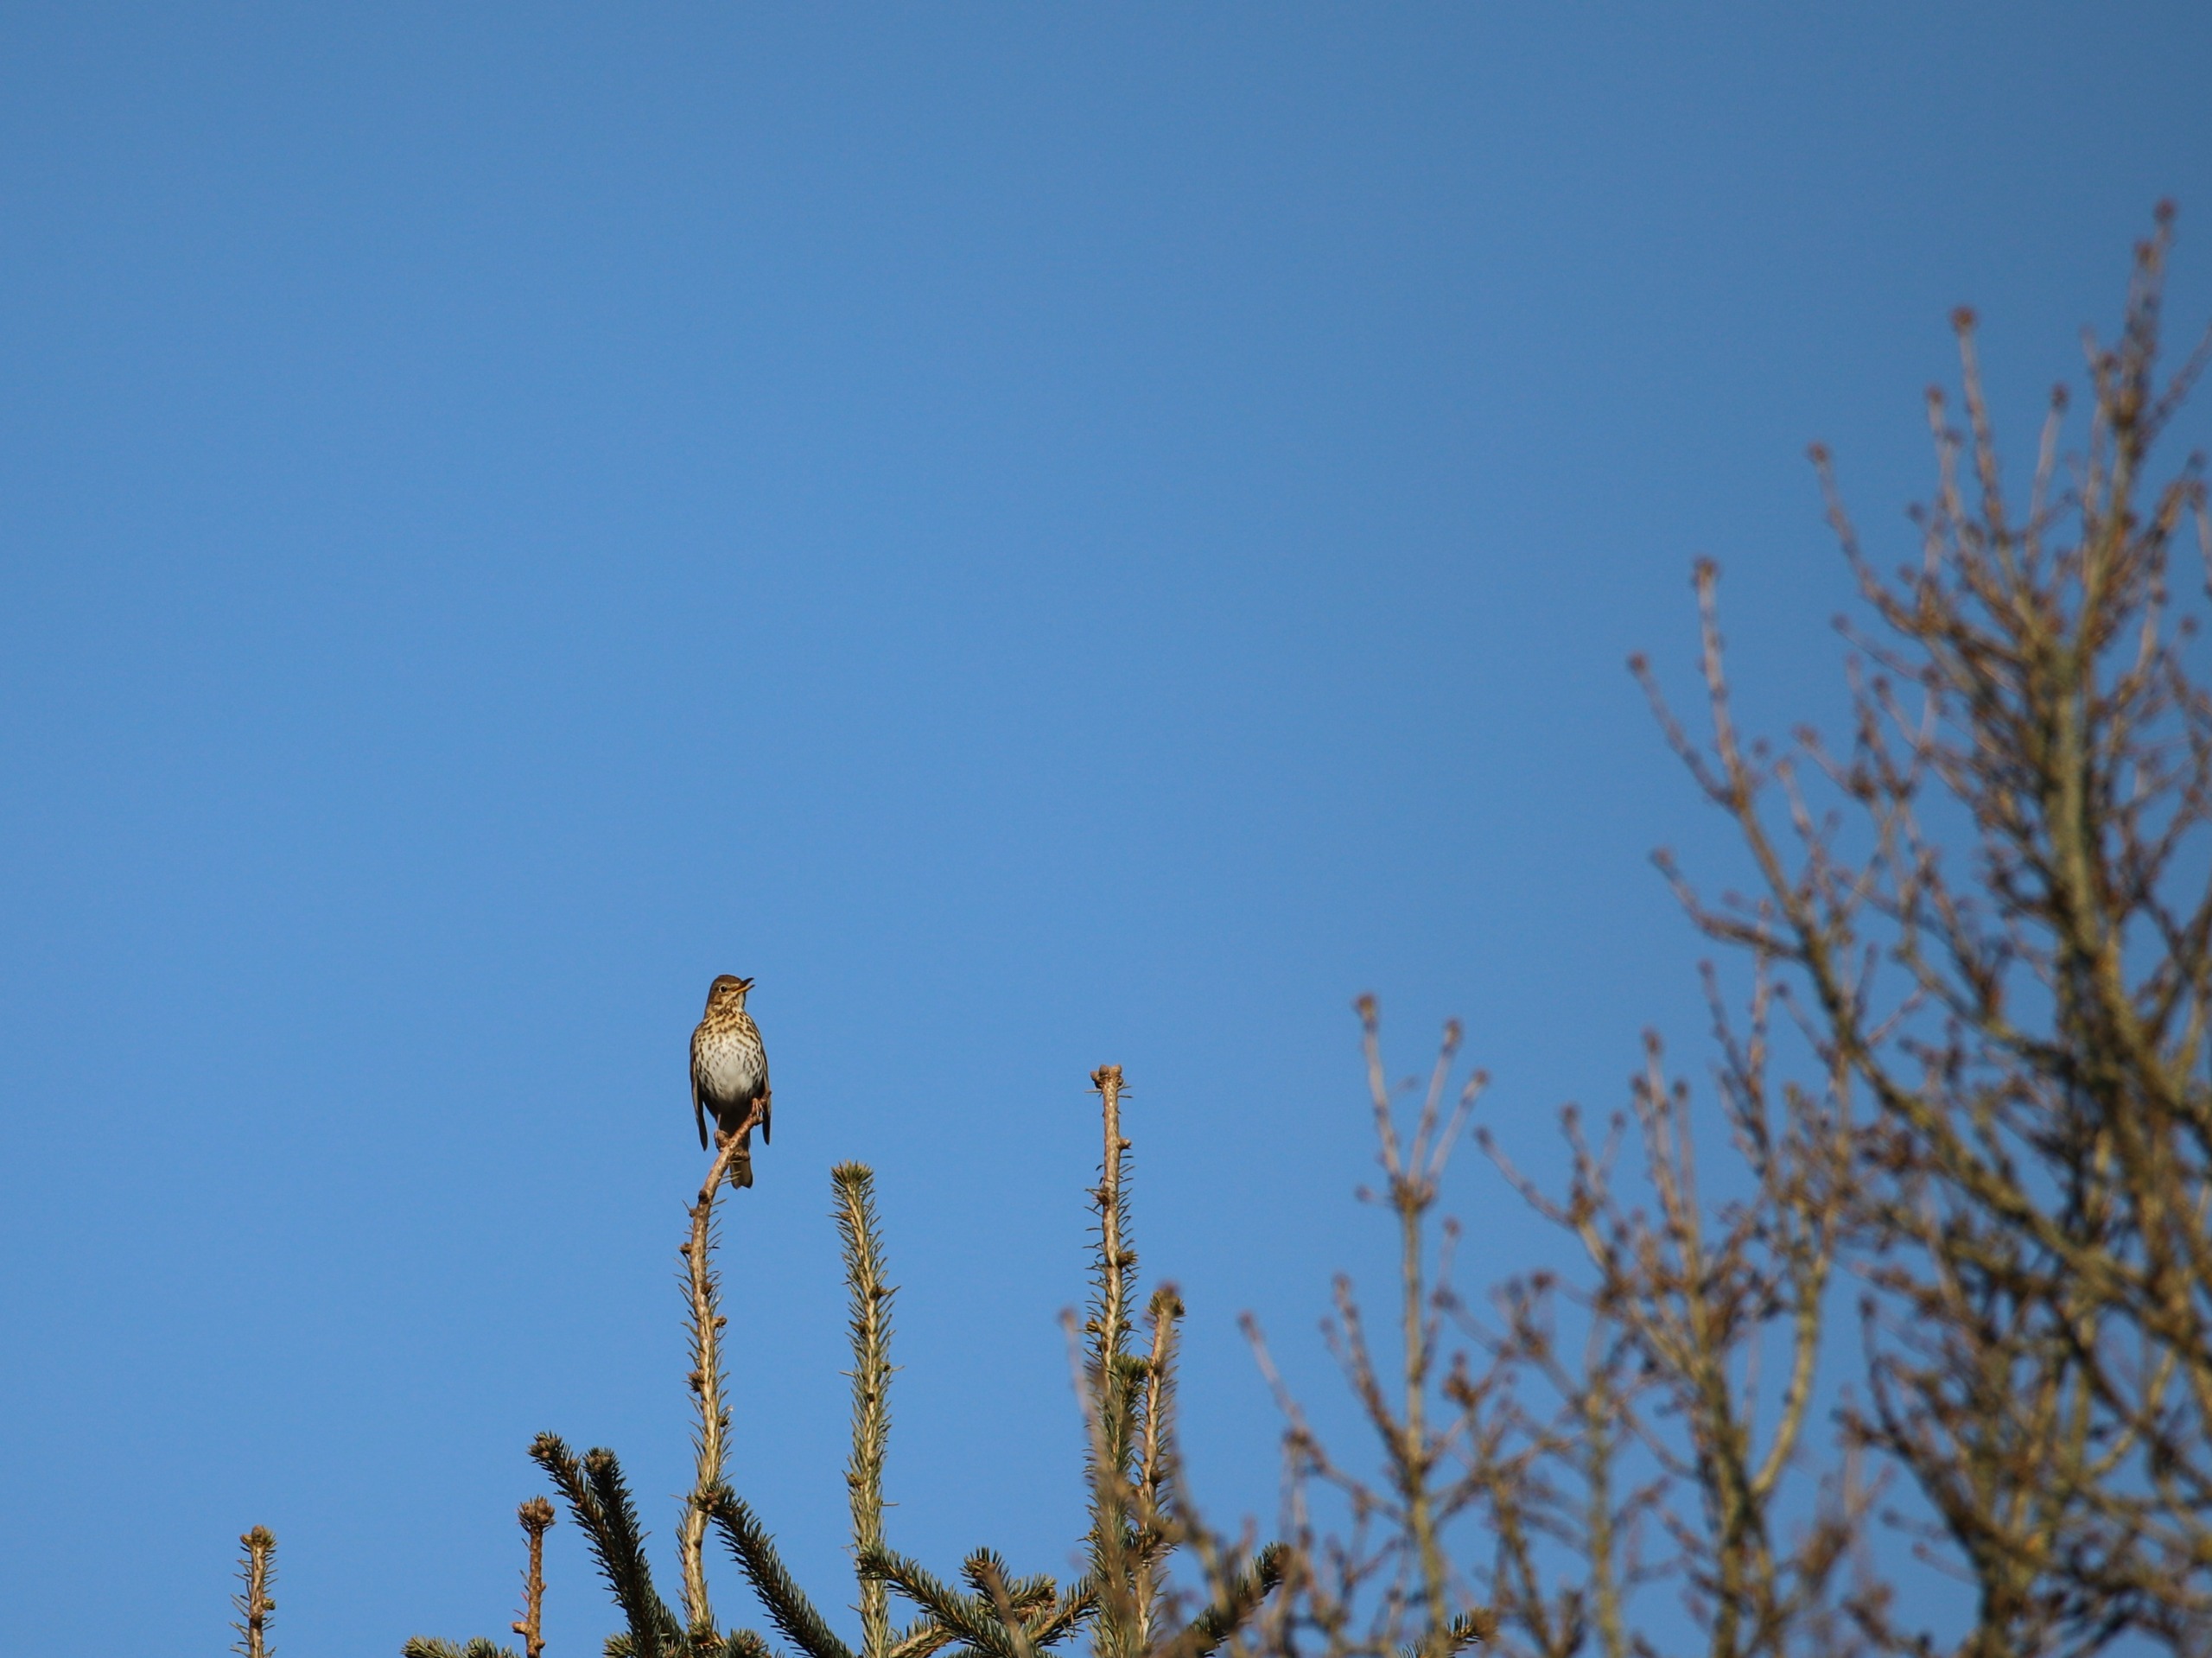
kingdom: Animalia
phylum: Chordata
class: Aves
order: Passeriformes
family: Turdidae
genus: Turdus
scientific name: Turdus philomelos
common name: Sangdrossel
